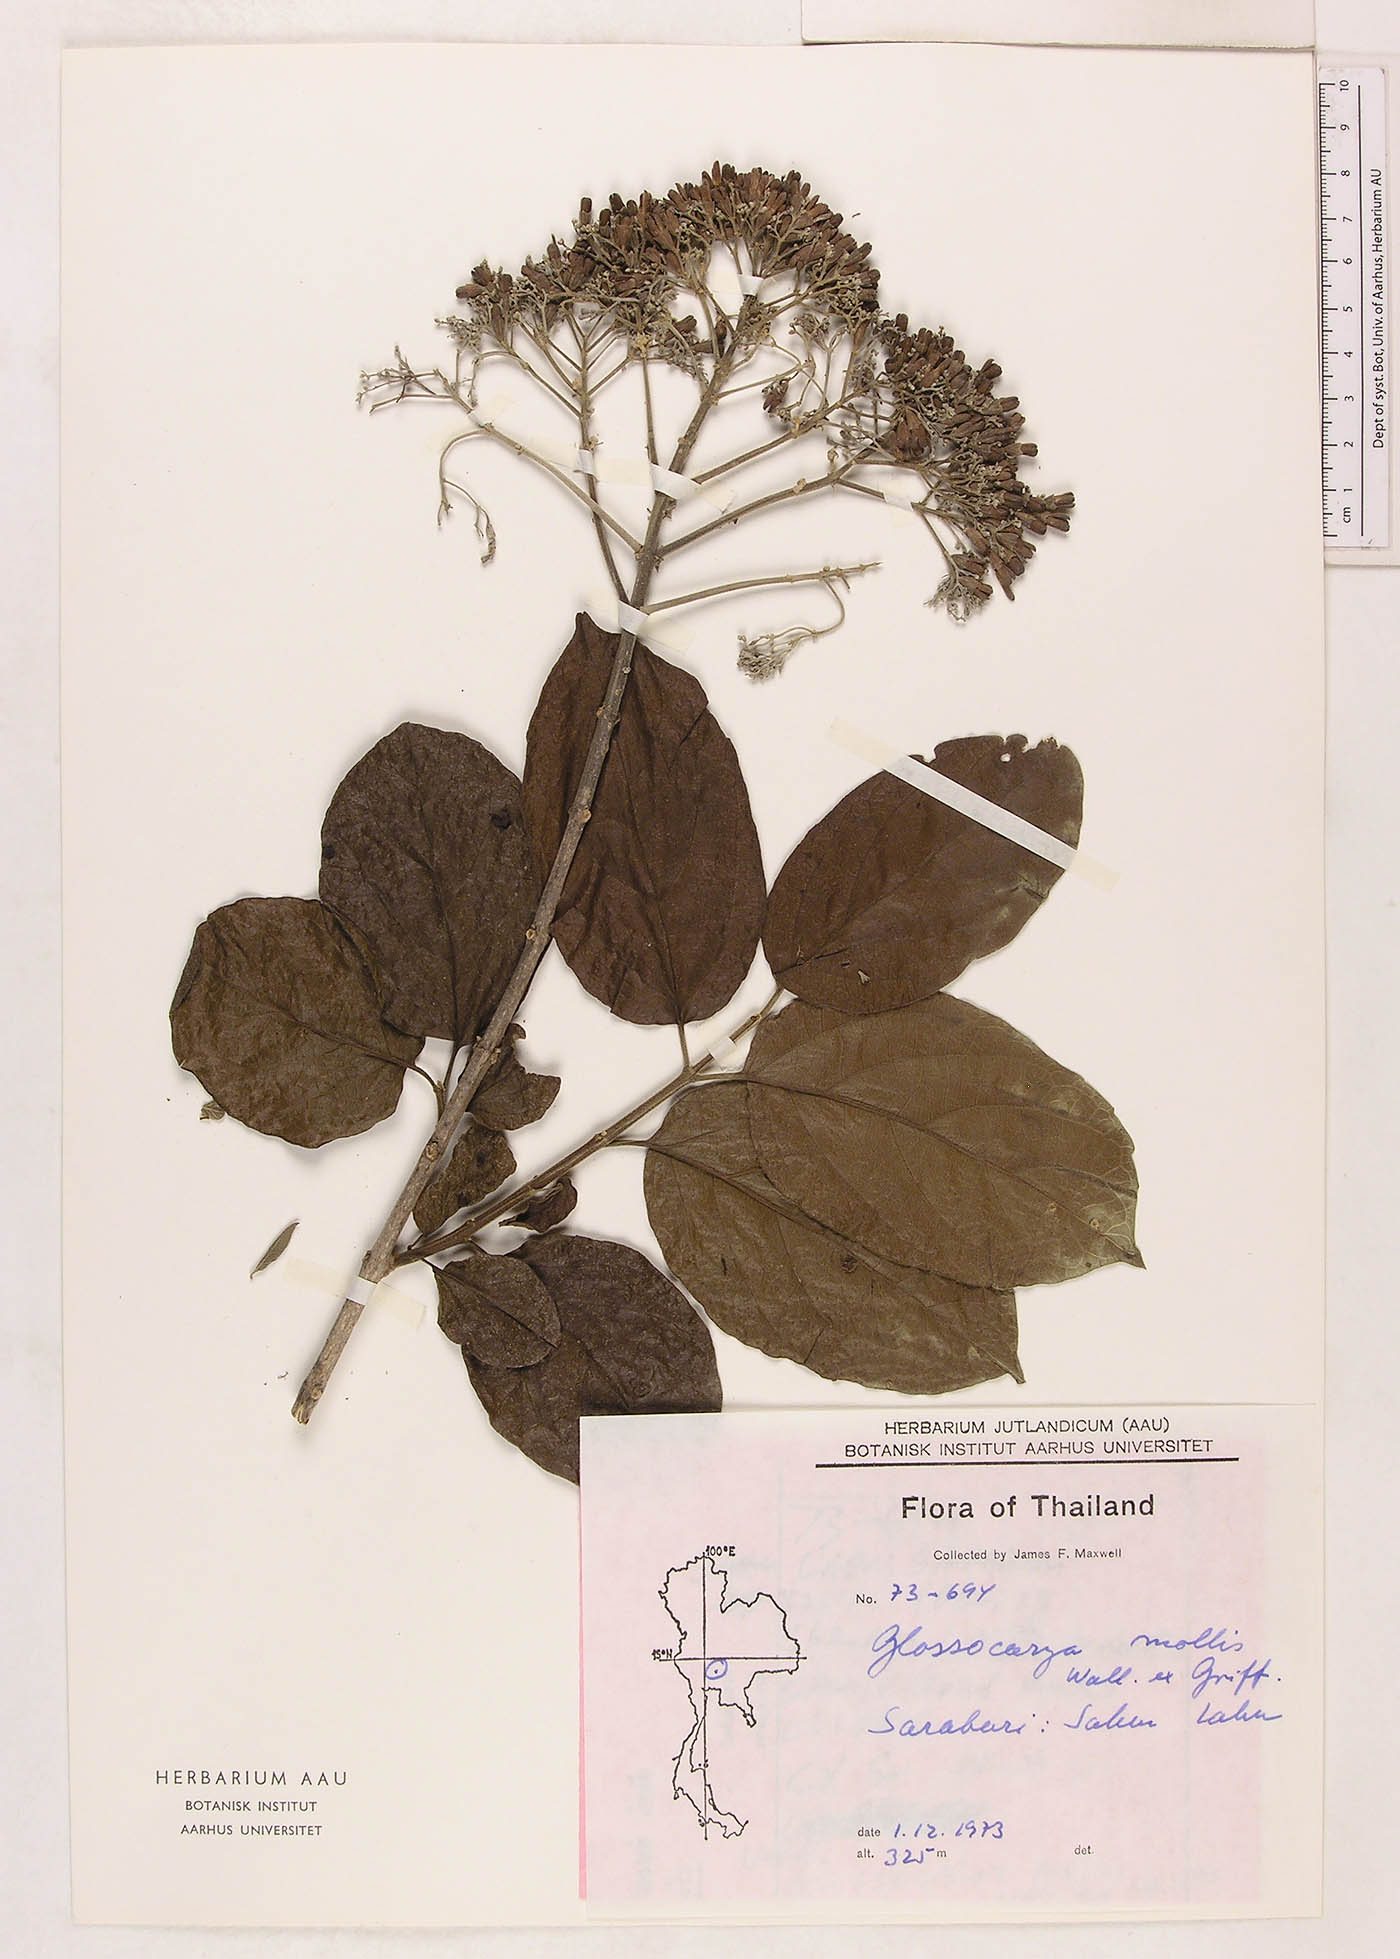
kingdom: Plantae
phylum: Tracheophyta
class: Magnoliopsida
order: Lamiales
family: Lamiaceae
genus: Glossocarya
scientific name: Glossocarya mollis
